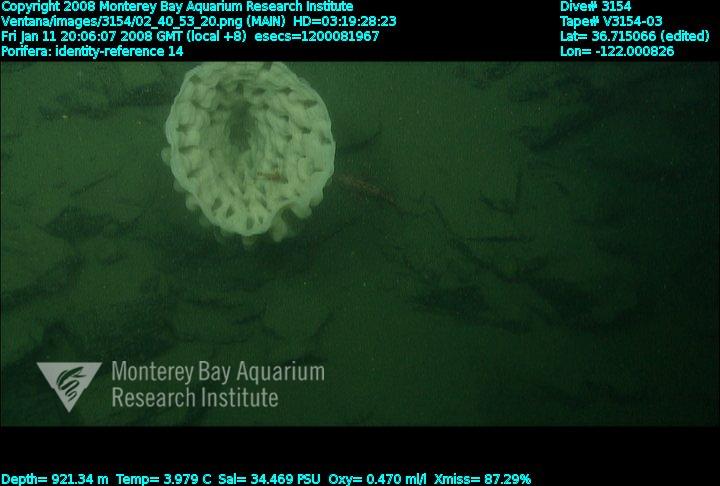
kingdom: Animalia
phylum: Porifera
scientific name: Porifera
